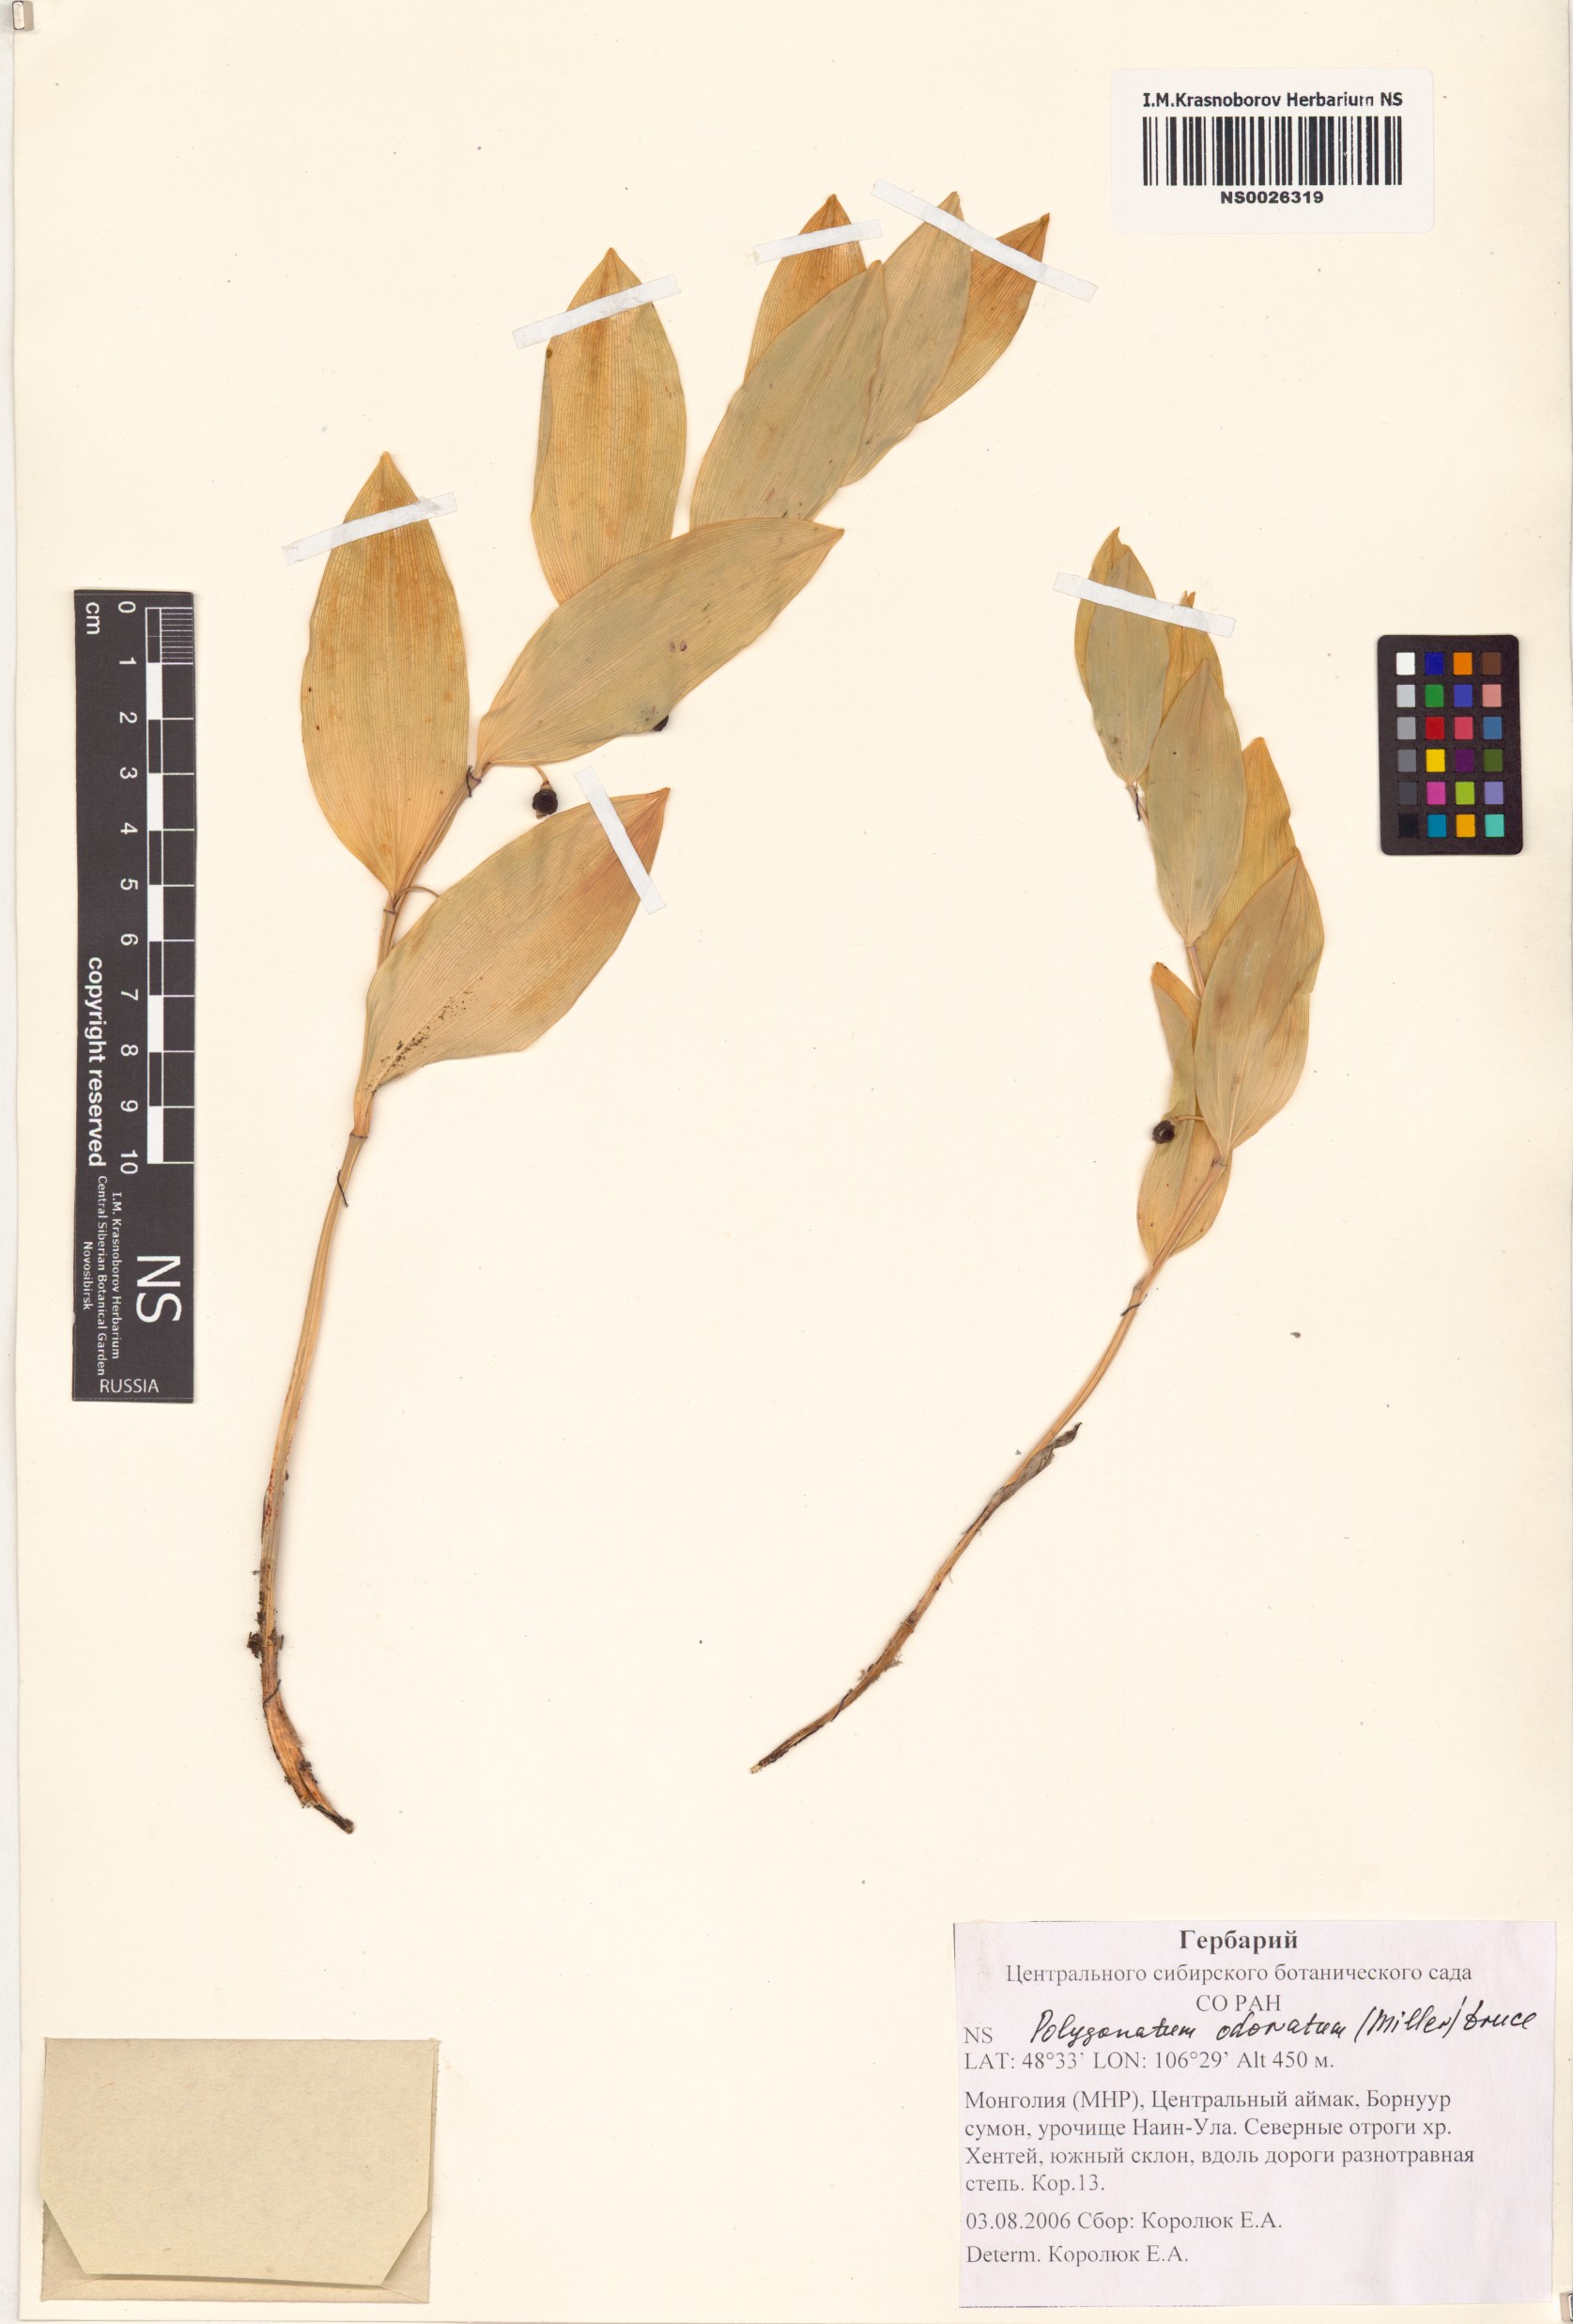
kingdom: Plantae
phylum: Tracheophyta
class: Liliopsida
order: Asparagales
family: Asparagaceae
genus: Polygonatum
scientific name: Polygonatum odoratum
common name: Angular solomon's-seal
